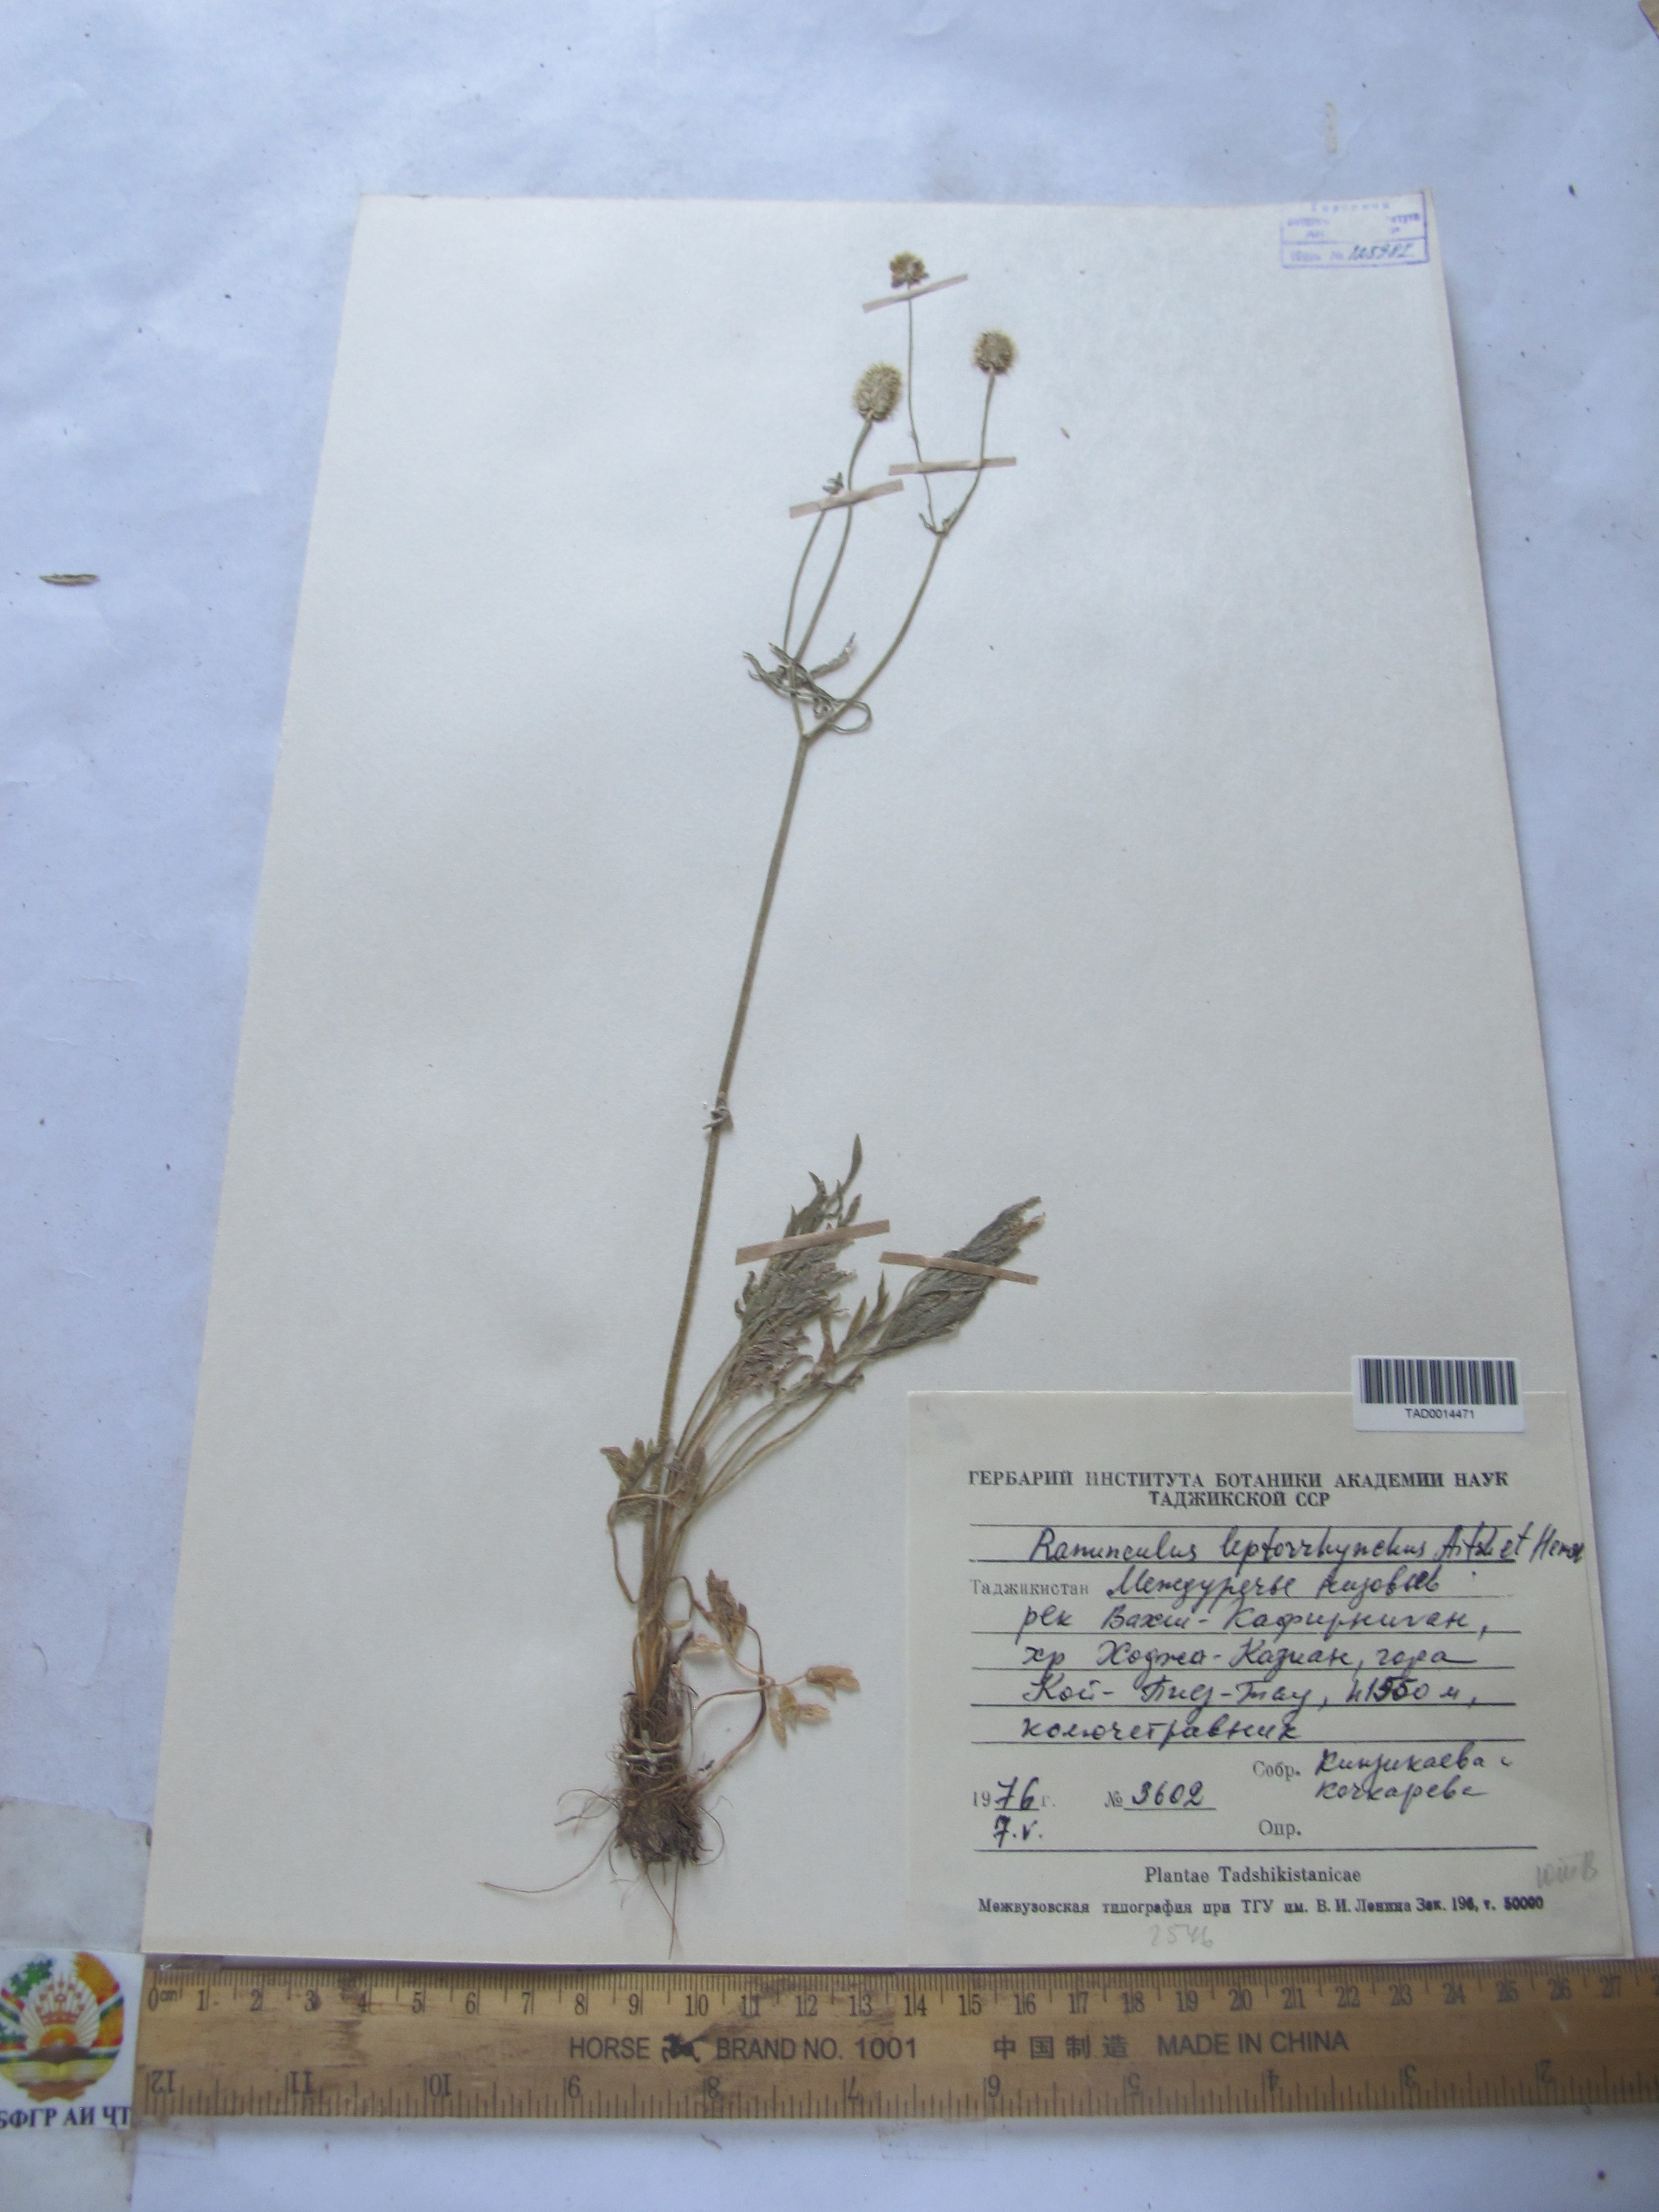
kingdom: Plantae
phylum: Tracheophyta
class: Magnoliopsida
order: Ranunculales
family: Ranunculaceae
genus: Ranunculus
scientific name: Ranunculus leptorrhynchus
